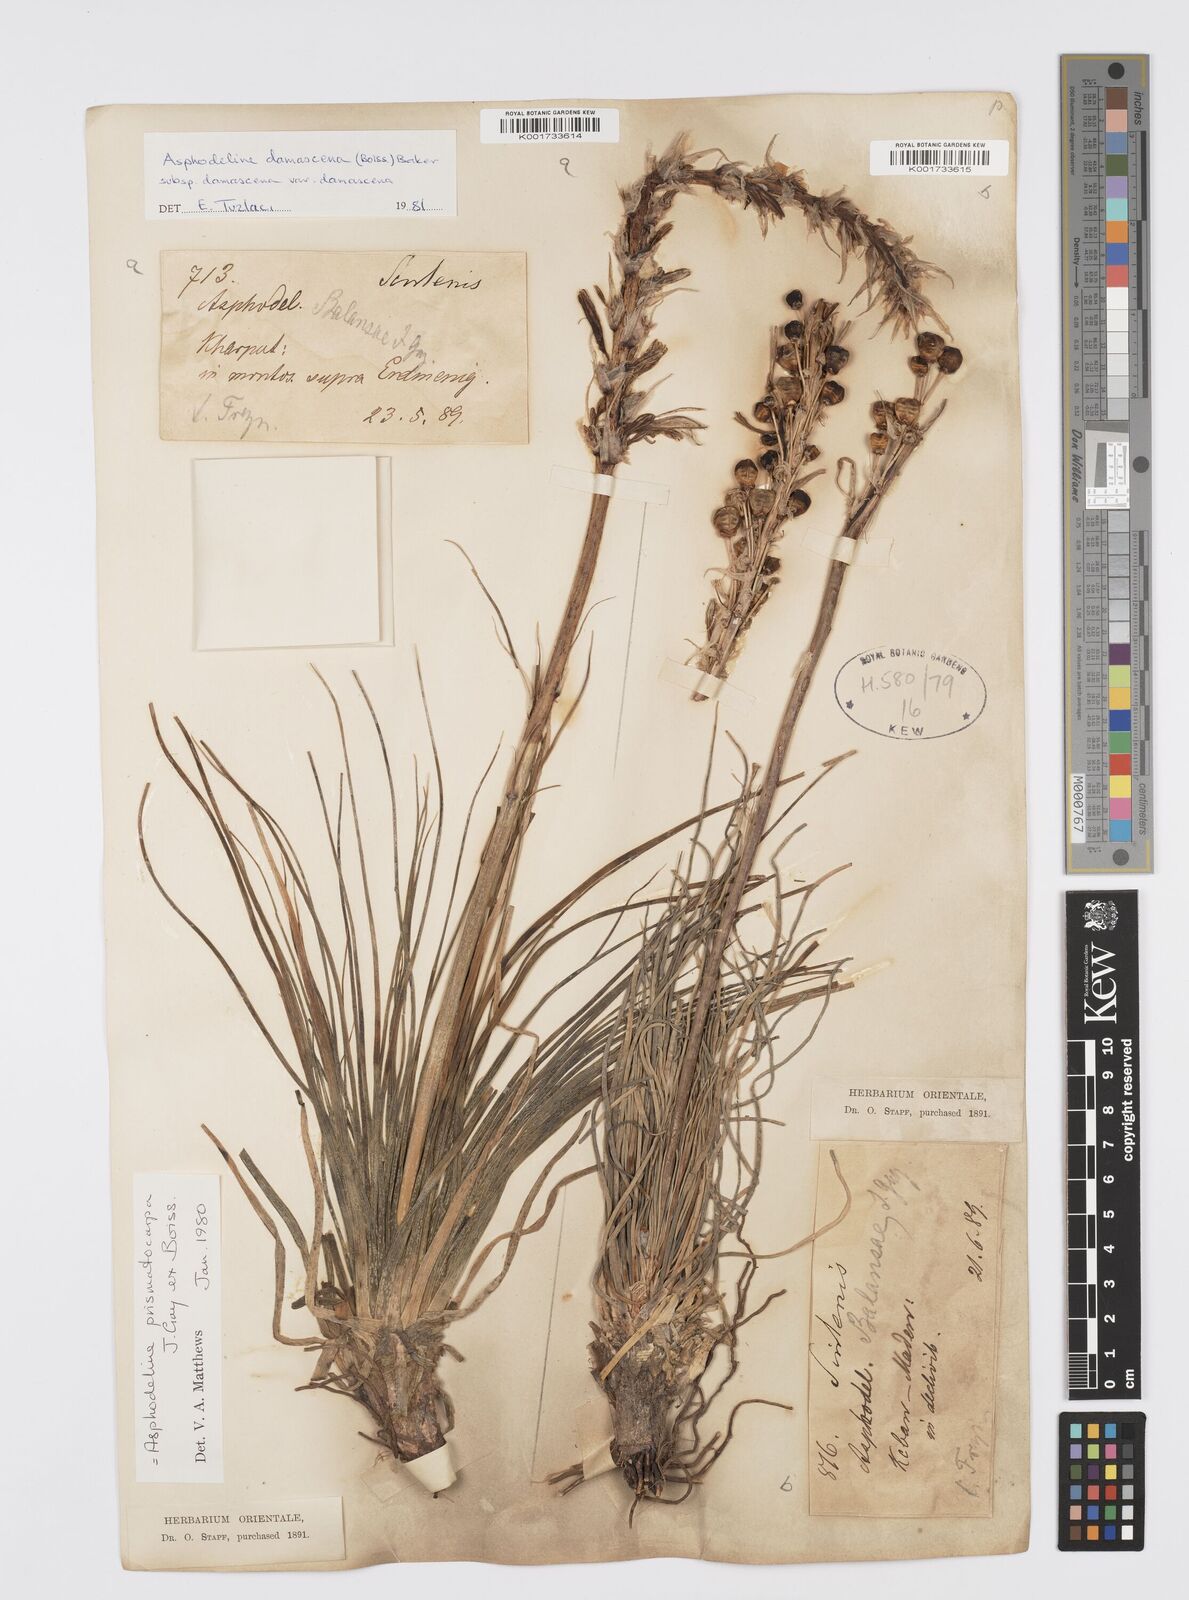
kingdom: Plantae
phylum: Tracheophyta
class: Liliopsida
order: Asparagales
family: Asphodelaceae
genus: Asphodeline
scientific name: Asphodeline damascena
